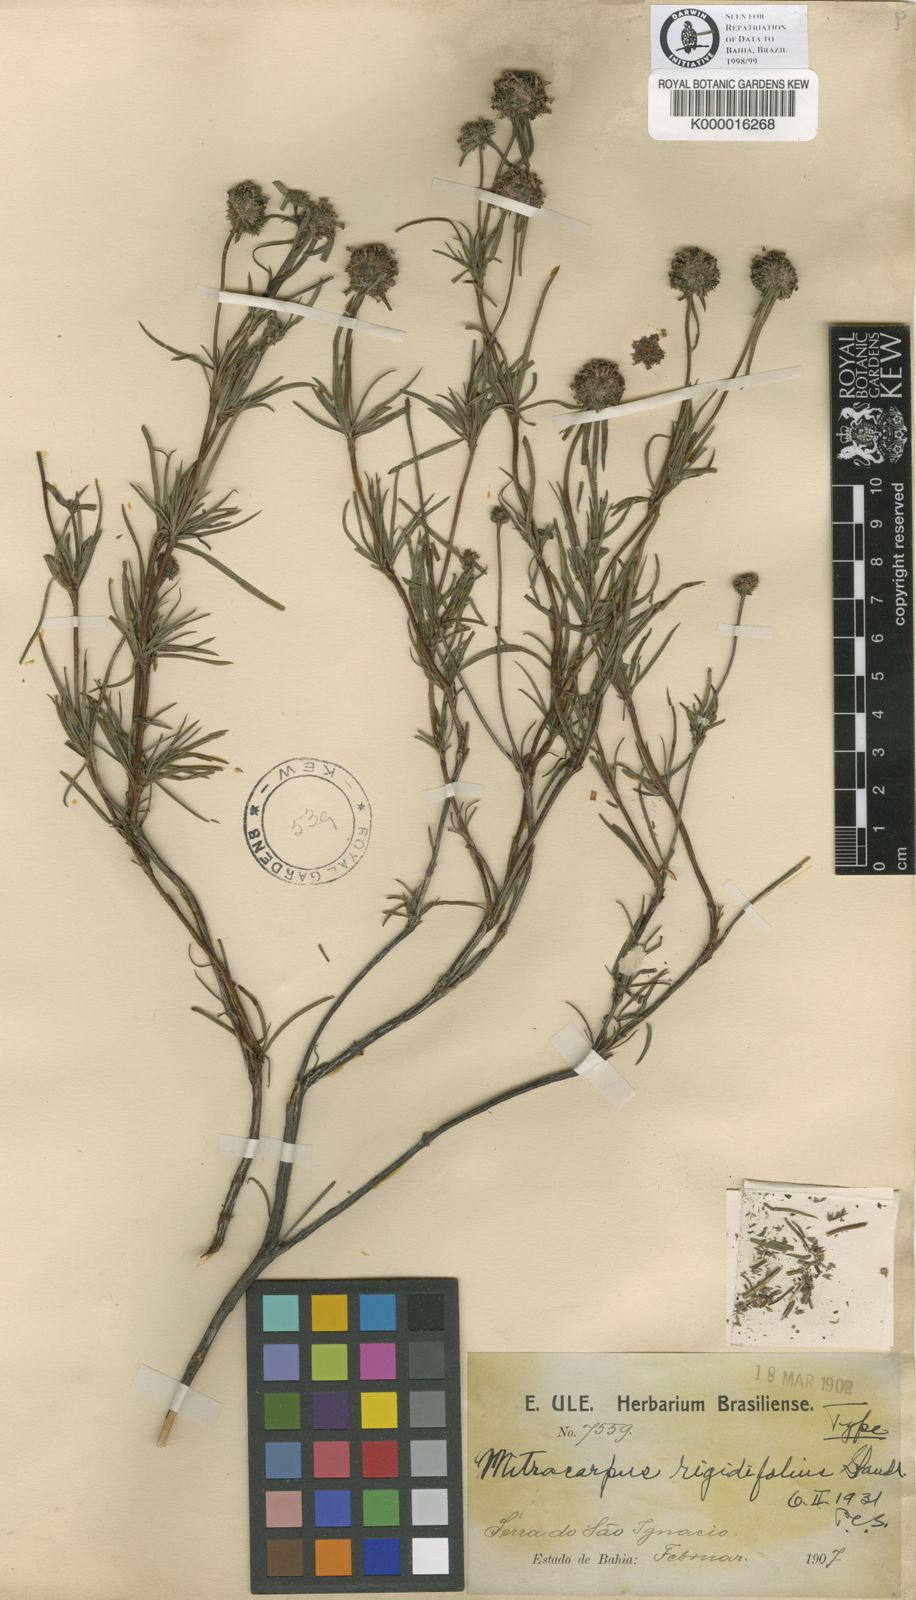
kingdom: Plantae
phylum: Tracheophyta
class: Magnoliopsida
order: Gentianales
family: Rubiaceae
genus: Mitracarpus
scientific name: Mitracarpus rigidifolius
